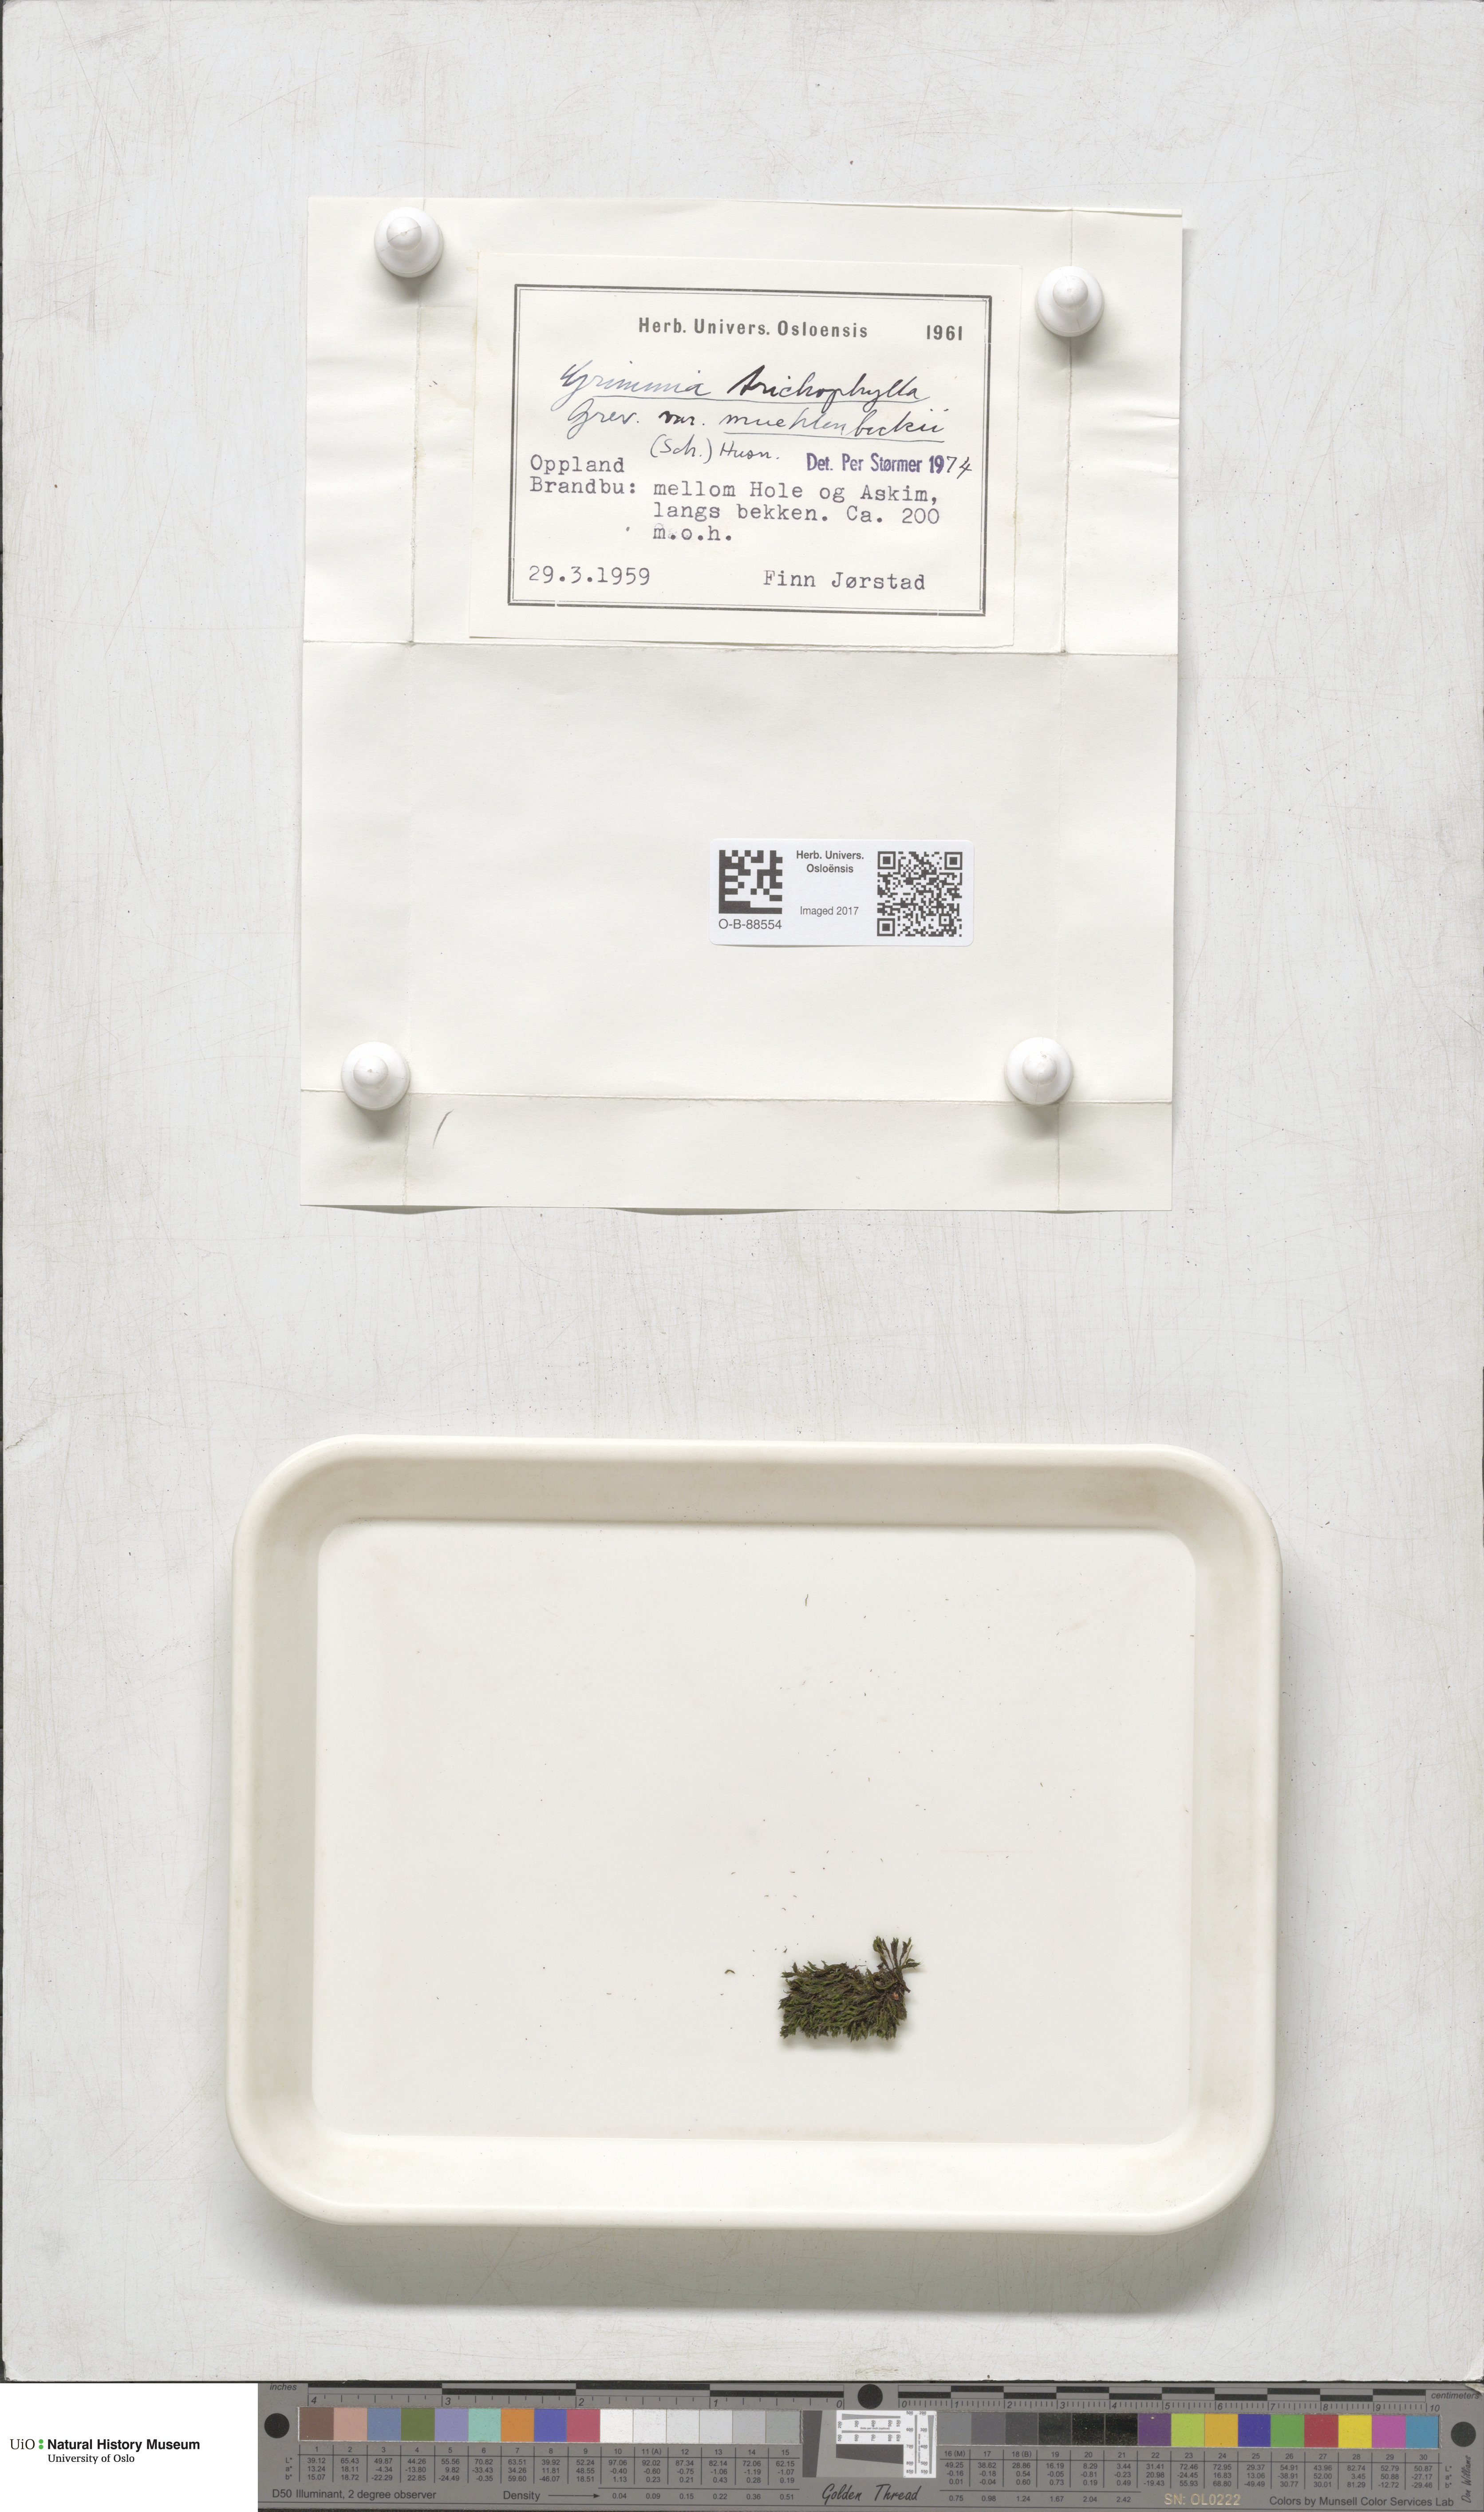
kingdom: Plantae
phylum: Bryophyta
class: Bryopsida
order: Grimmiales
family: Grimmiaceae
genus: Grimmia
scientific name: Grimmia trichophylla
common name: Hair-pointed grimmia
